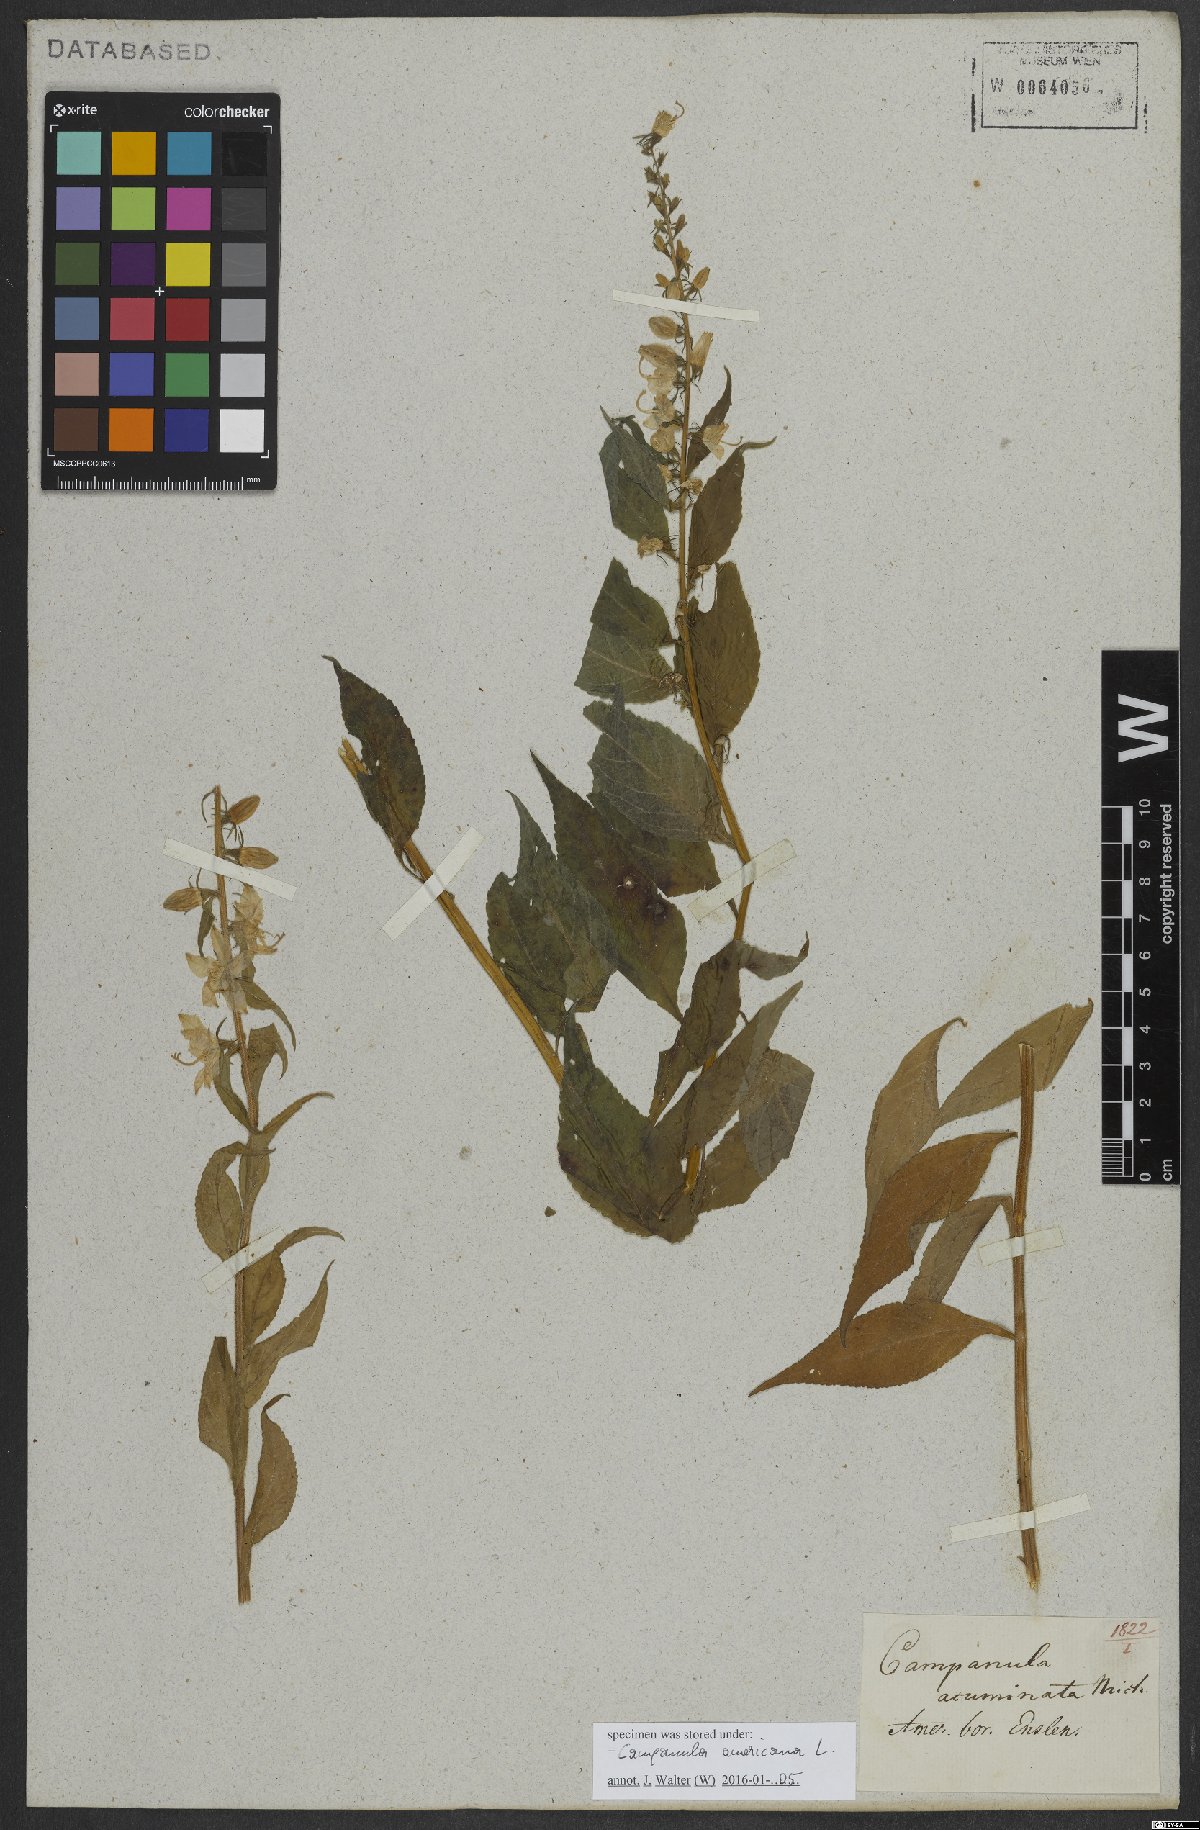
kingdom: Plantae
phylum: Tracheophyta
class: Magnoliopsida
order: Asterales
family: Campanulaceae
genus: Campanulastrum
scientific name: Campanulastrum americanum
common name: American bellflower
